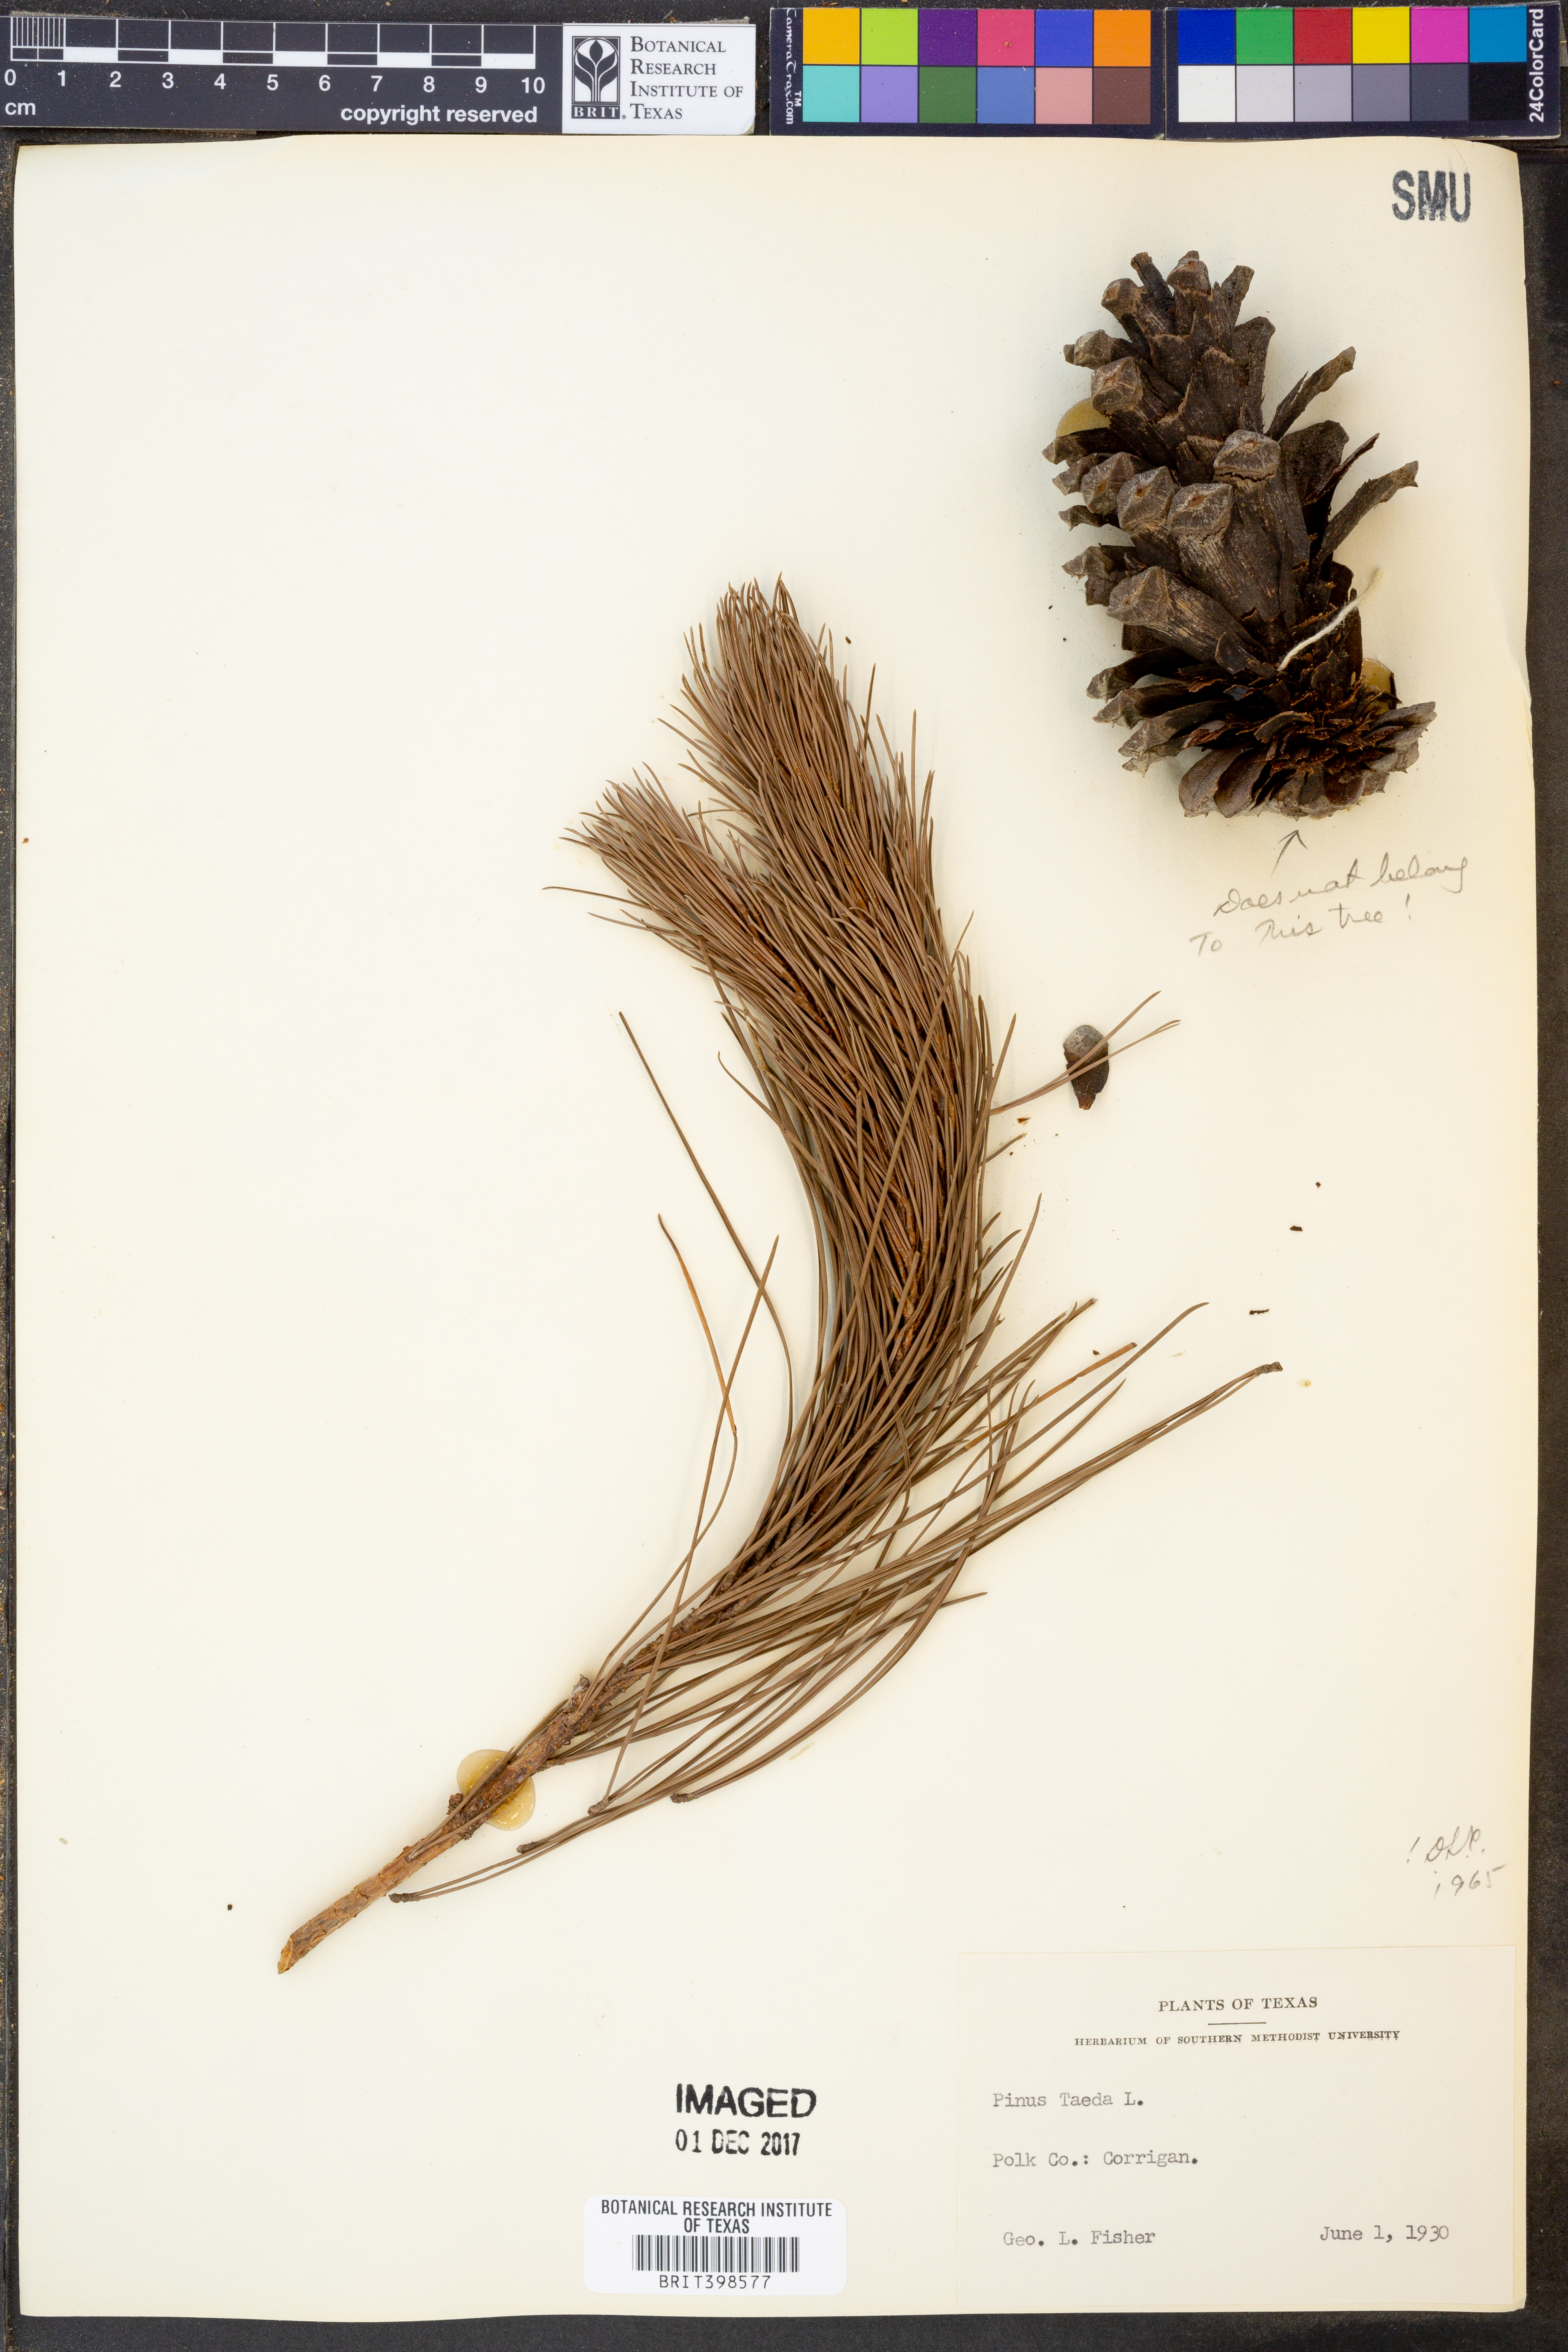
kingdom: Plantae
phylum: Tracheophyta
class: Pinopsida
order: Pinales
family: Pinaceae
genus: Pinus
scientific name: Pinus taeda
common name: Loblolly pine
